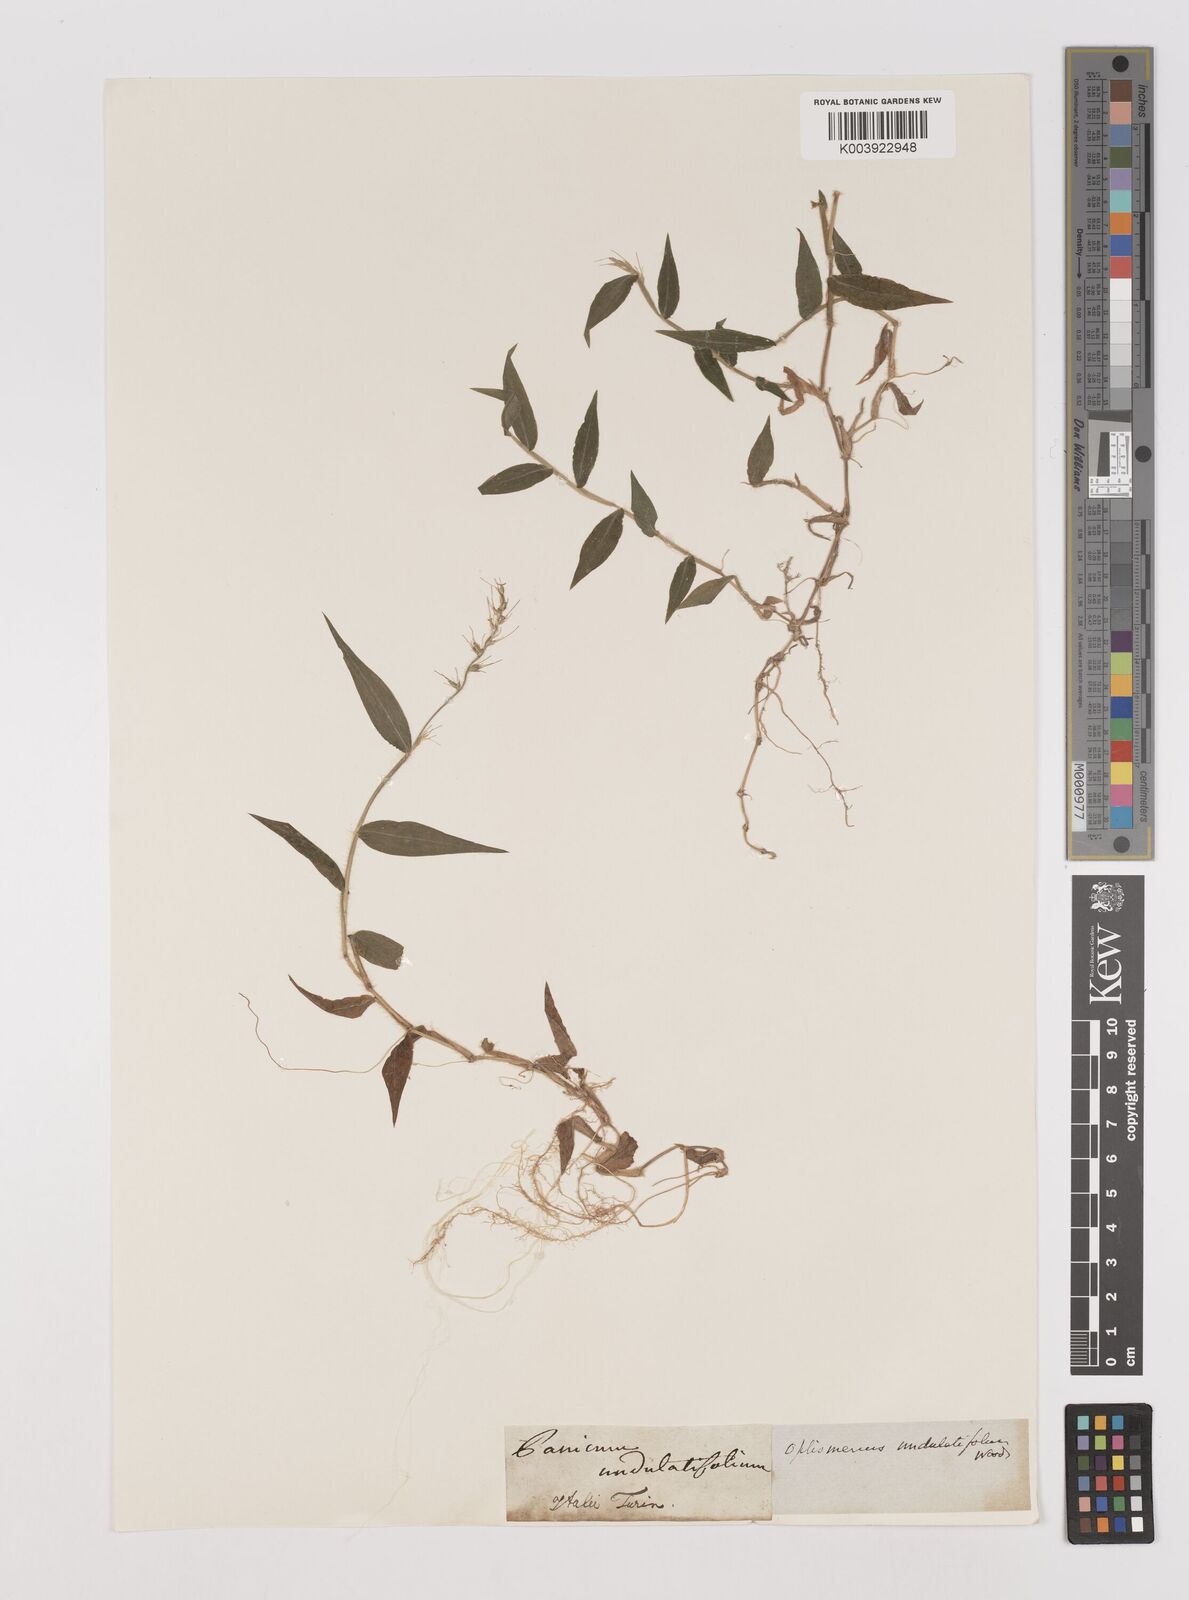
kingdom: Plantae
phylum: Tracheophyta
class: Liliopsida
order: Poales
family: Poaceae
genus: Oplismenus
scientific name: Oplismenus undulatifolius
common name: Wavyleaf basketgrass
